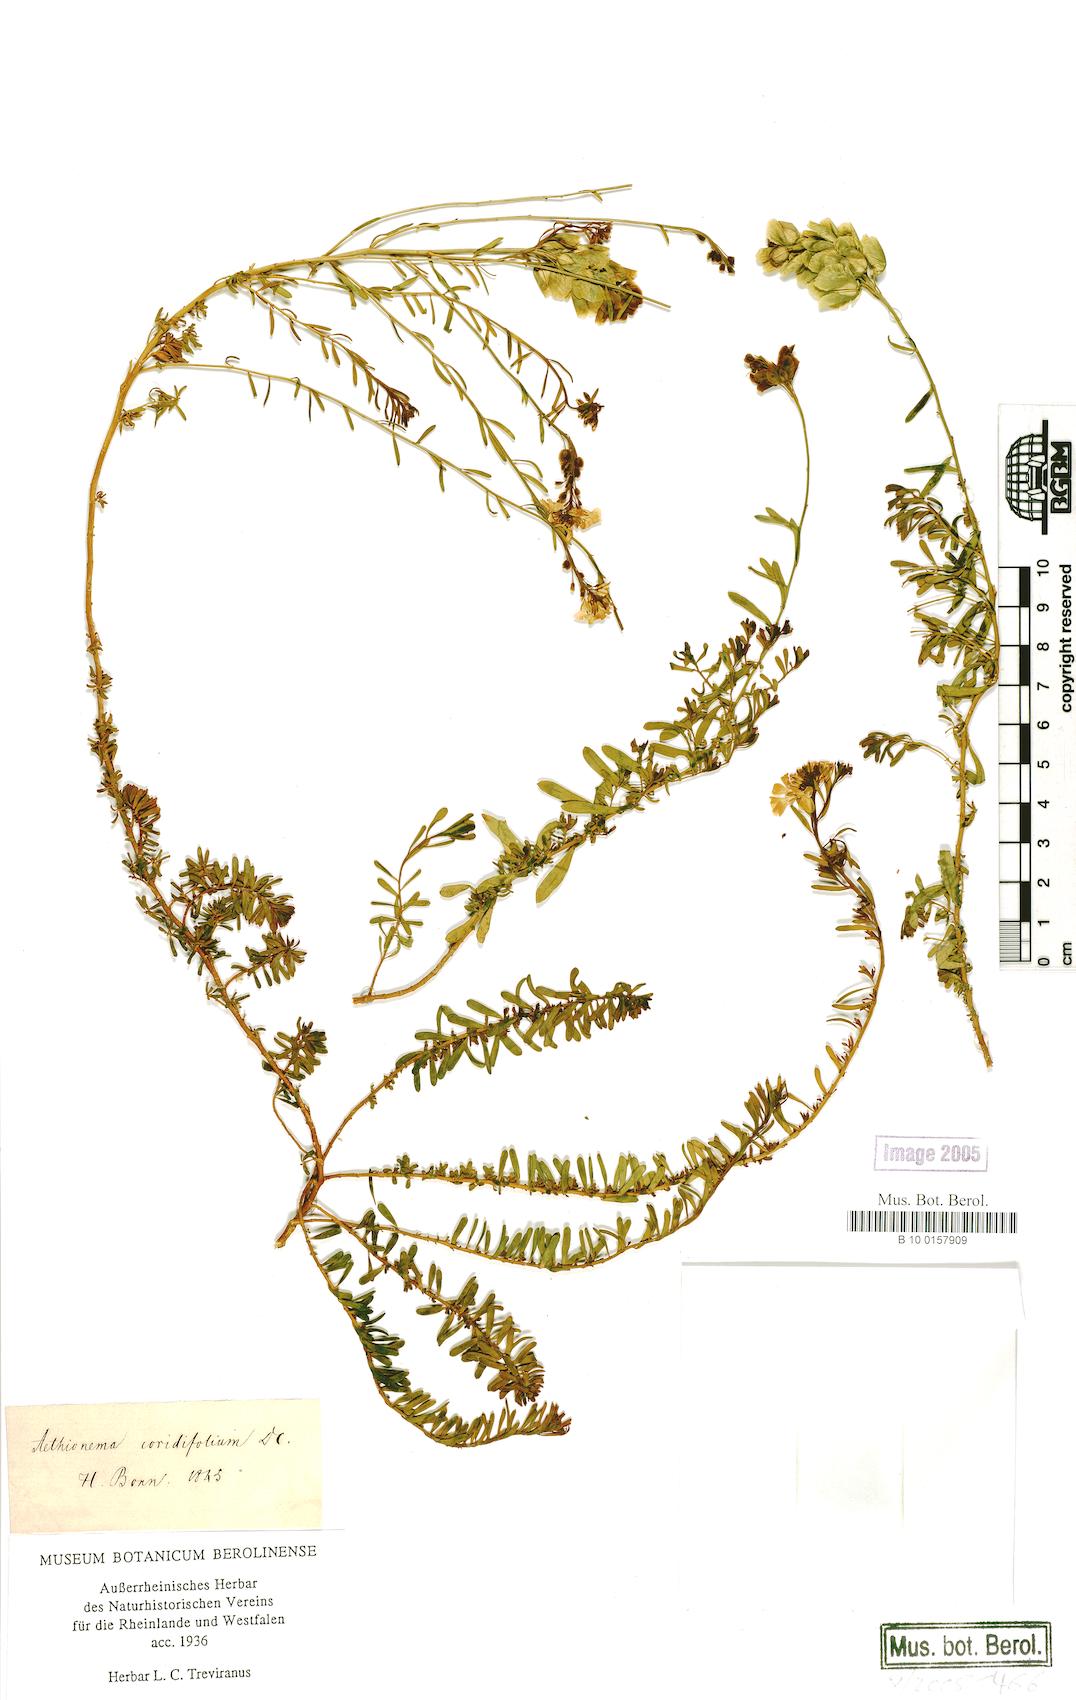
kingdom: Plantae
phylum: Tracheophyta
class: Magnoliopsida
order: Brassicales
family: Brassicaceae
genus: Aethionema
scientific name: Aethionema coridifolium
